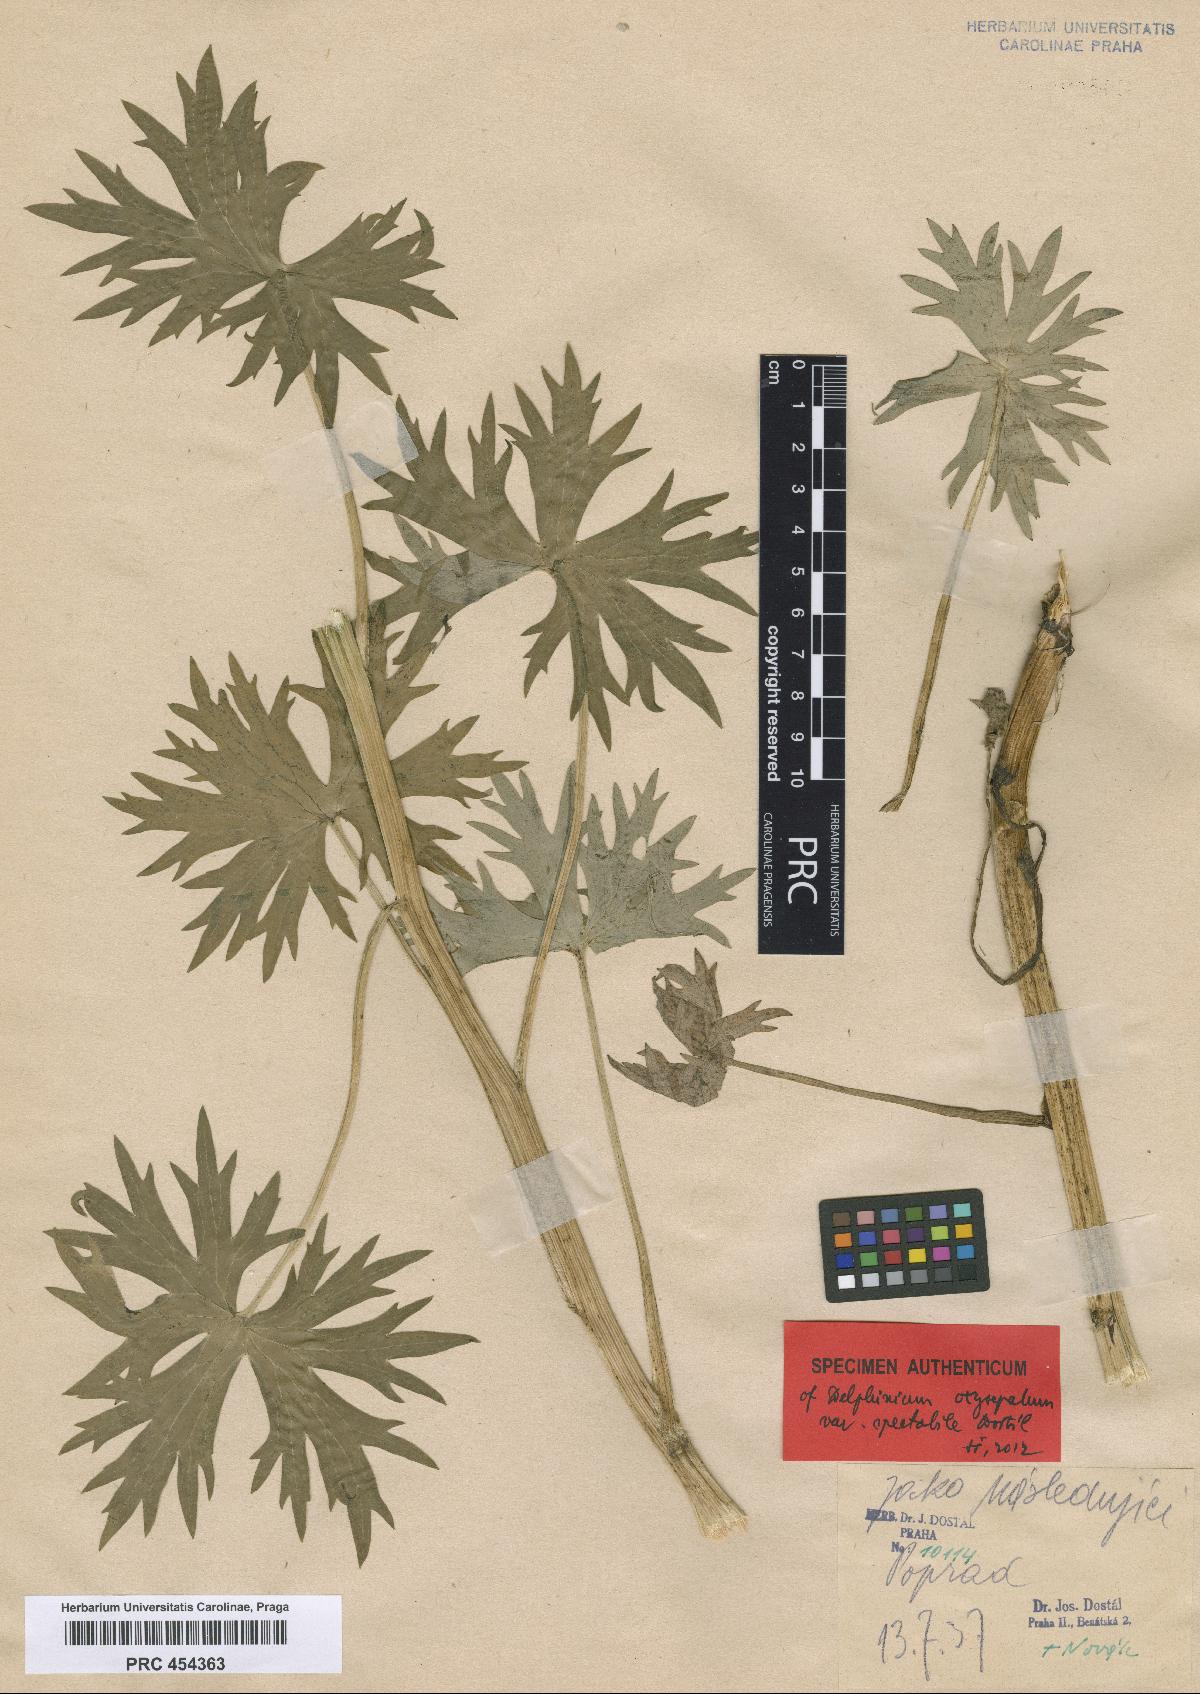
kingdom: Plantae
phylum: Tracheophyta
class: Magnoliopsida
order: Ranunculales
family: Ranunculaceae
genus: Delphinium
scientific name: Delphinium oxysepalum
